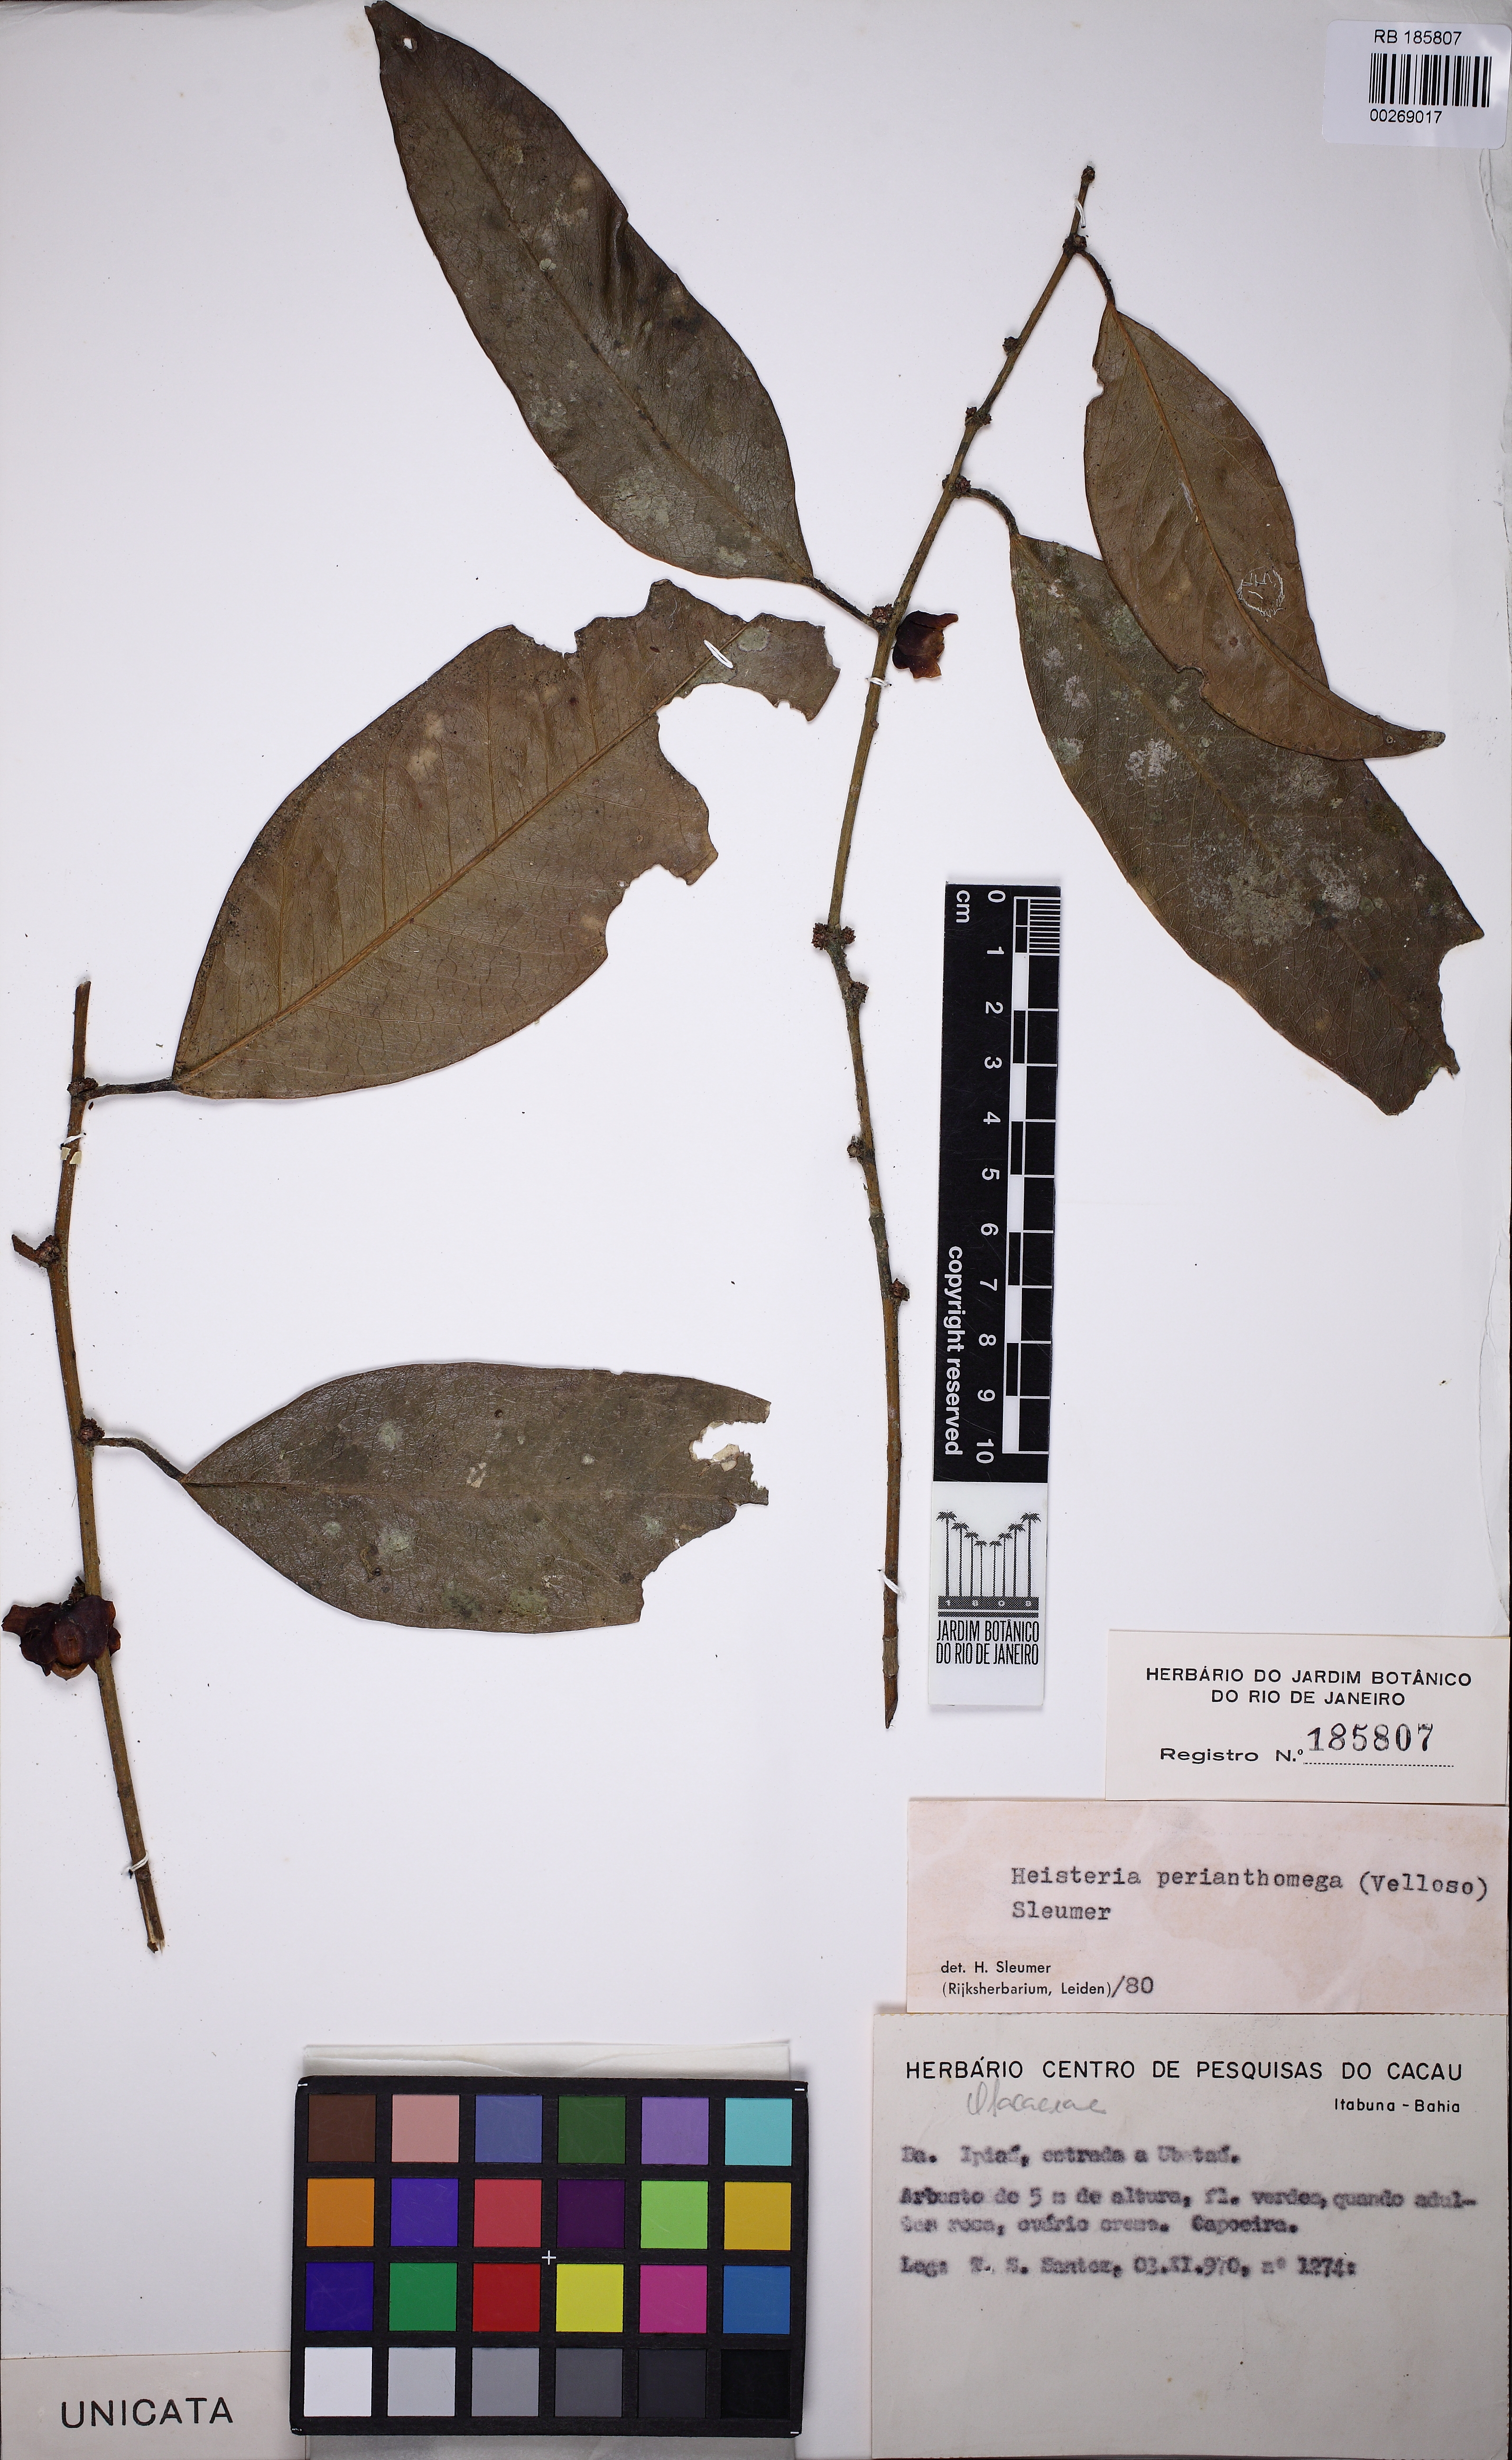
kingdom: Plantae
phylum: Tracheophyta
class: Magnoliopsida
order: Santalales
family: Erythropalaceae
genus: Heisteria
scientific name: Heisteria perianthomega
